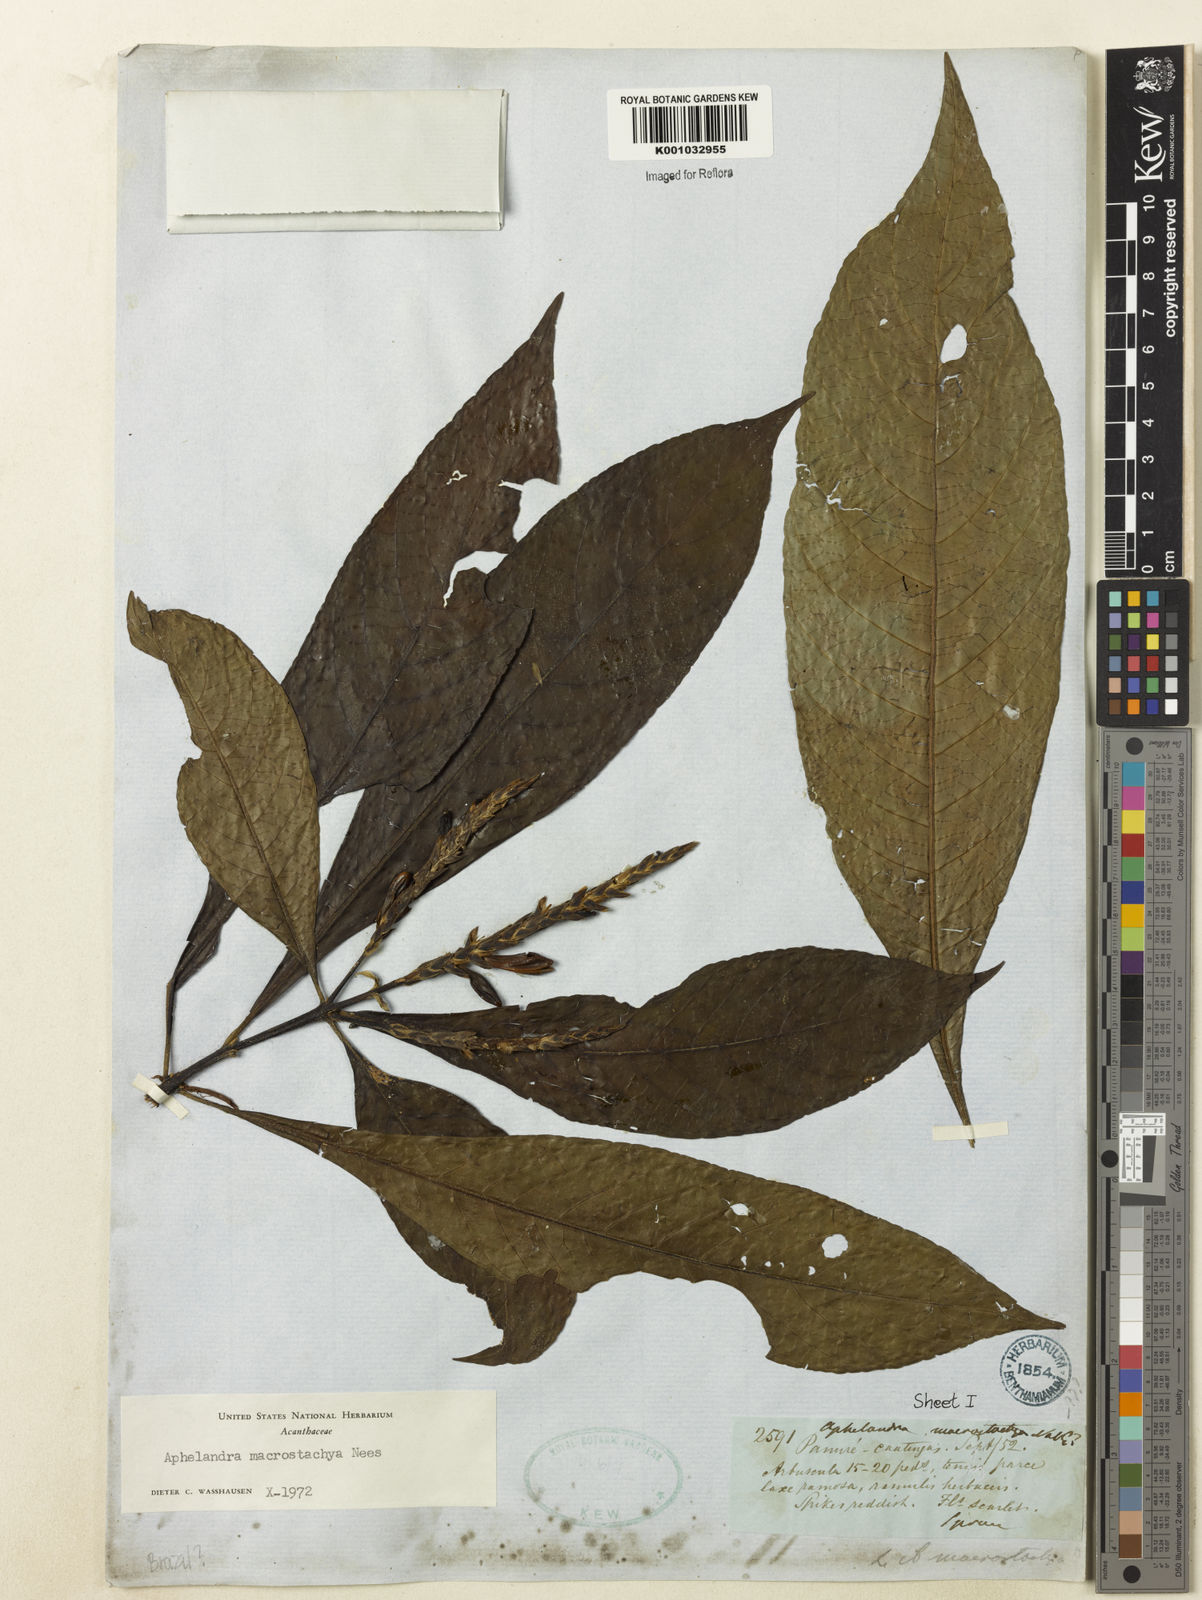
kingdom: Plantae
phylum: Tracheophyta
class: Magnoliopsida
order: Lamiales
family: Acanthaceae
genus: Aphelandra
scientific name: Aphelandra macrostachya
